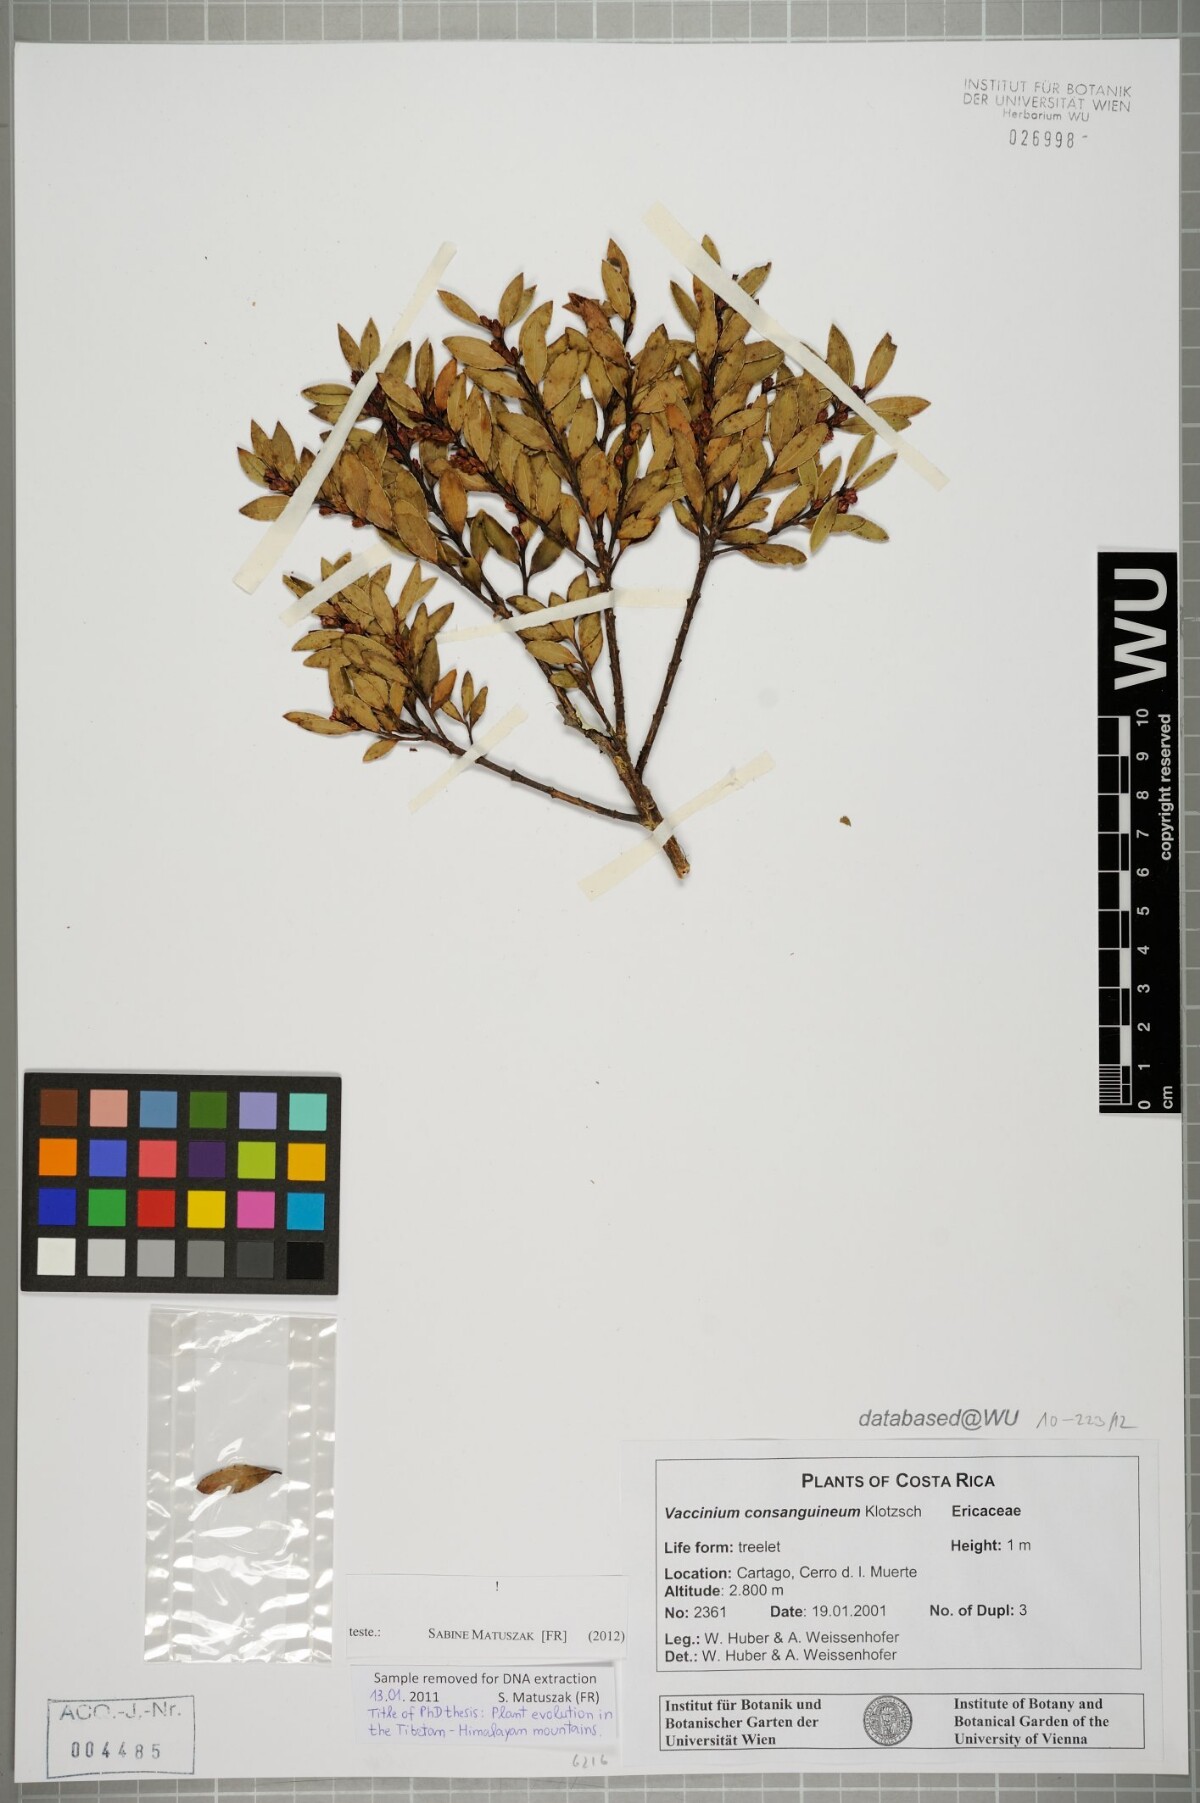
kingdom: Plantae
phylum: Tracheophyta
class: Magnoliopsida
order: Ericales
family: Ericaceae
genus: Vaccinium
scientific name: Vaccinium consanguineum
